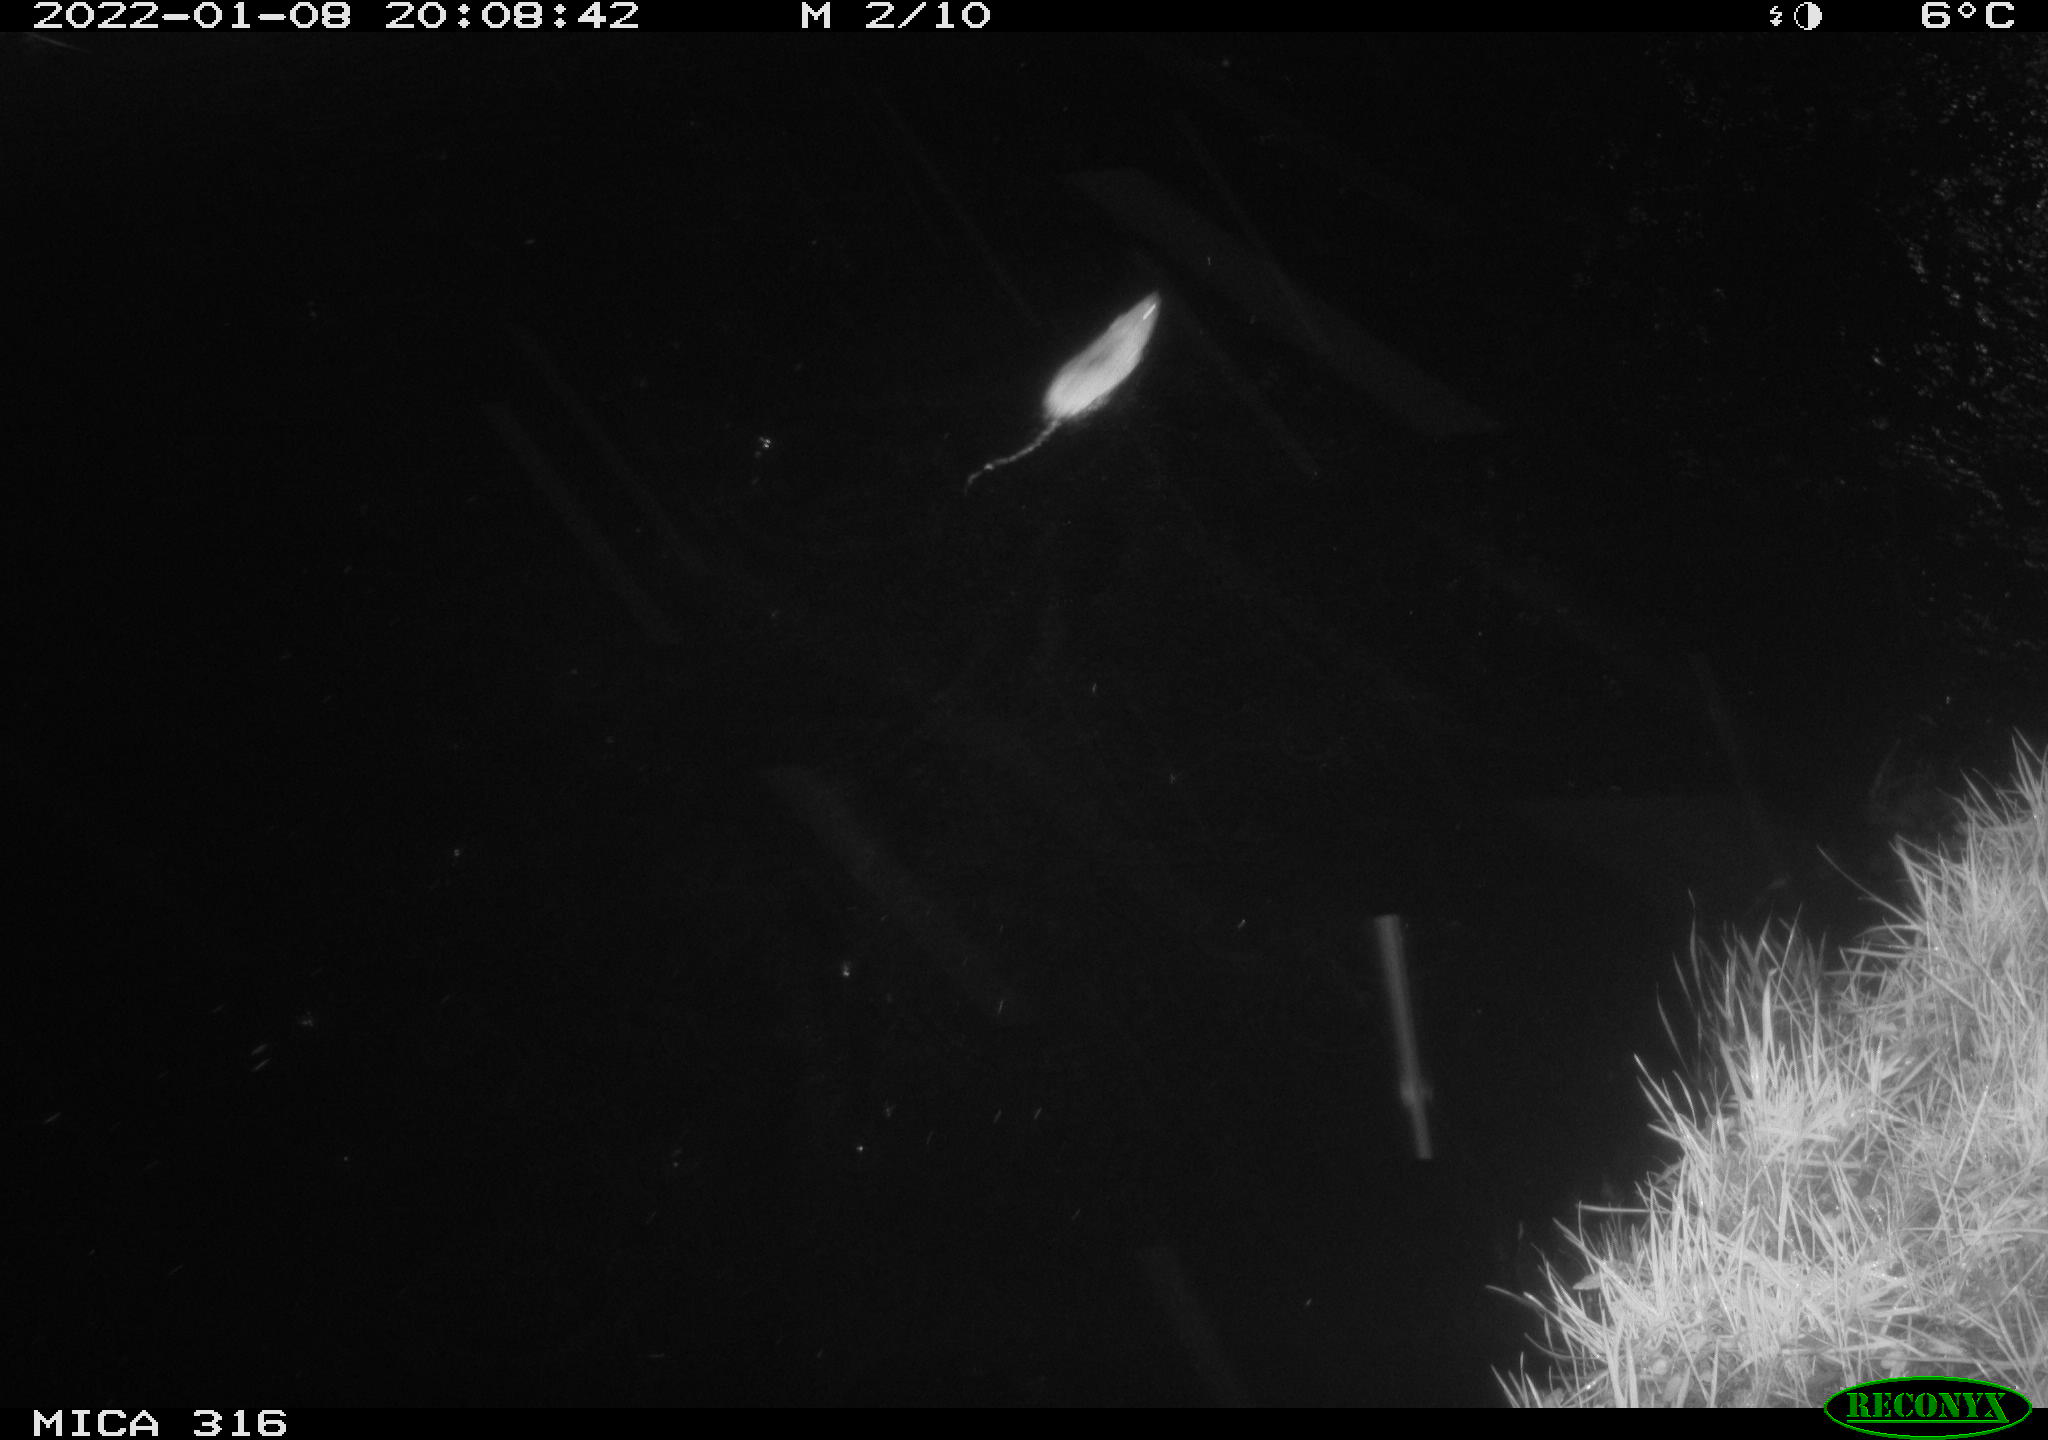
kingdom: Animalia
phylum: Chordata
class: Mammalia
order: Rodentia
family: Muridae
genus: Rattus
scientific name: Rattus norvegicus
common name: Brown rat
